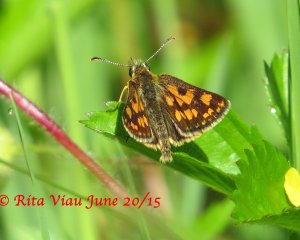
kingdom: Animalia
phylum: Arthropoda
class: Insecta
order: Lepidoptera
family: Hesperiidae
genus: Carterocephalus
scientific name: Carterocephalus palaemon
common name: Chequered Skipper
